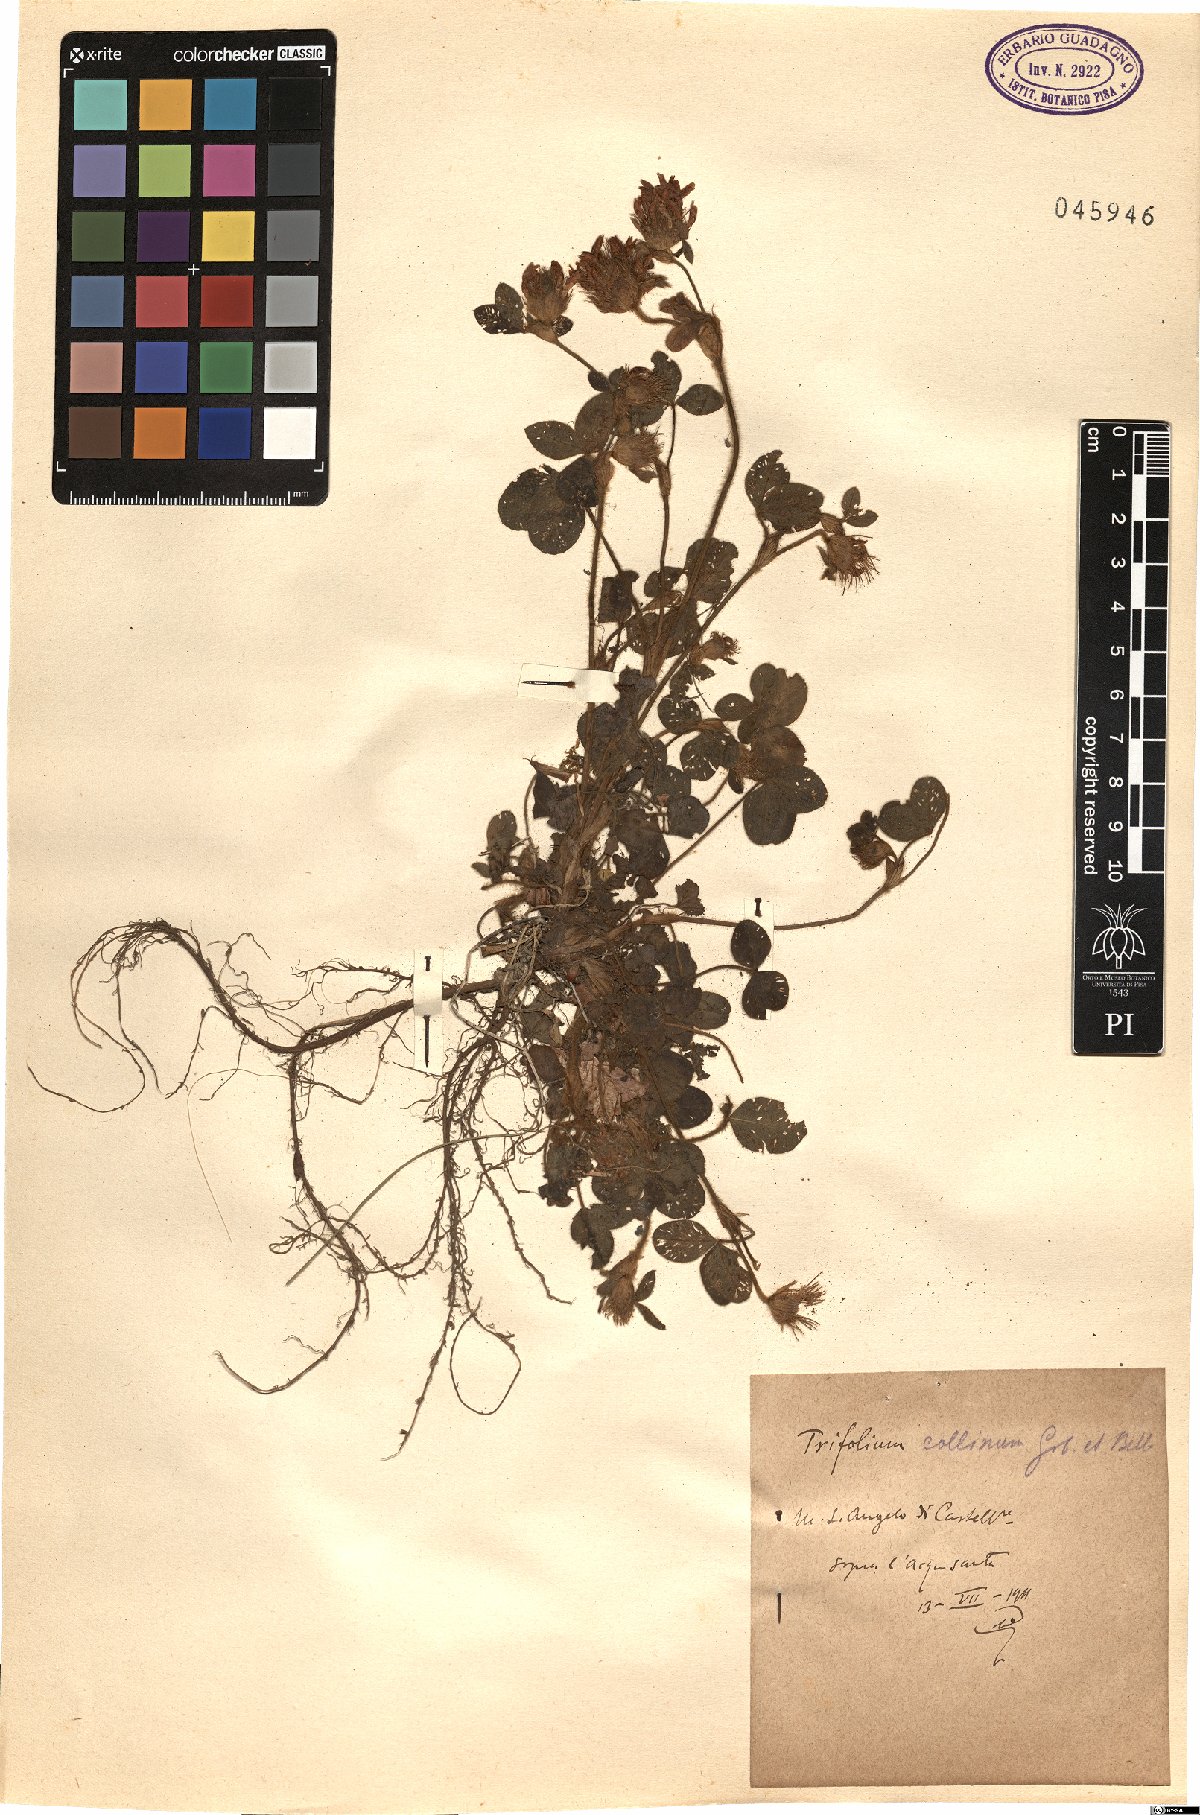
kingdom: Plantae
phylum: Tracheophyta
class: Magnoliopsida
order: Fabales
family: Fabaceae
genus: Trifolium
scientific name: Trifolium bocconei
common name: Twin-headed clover
